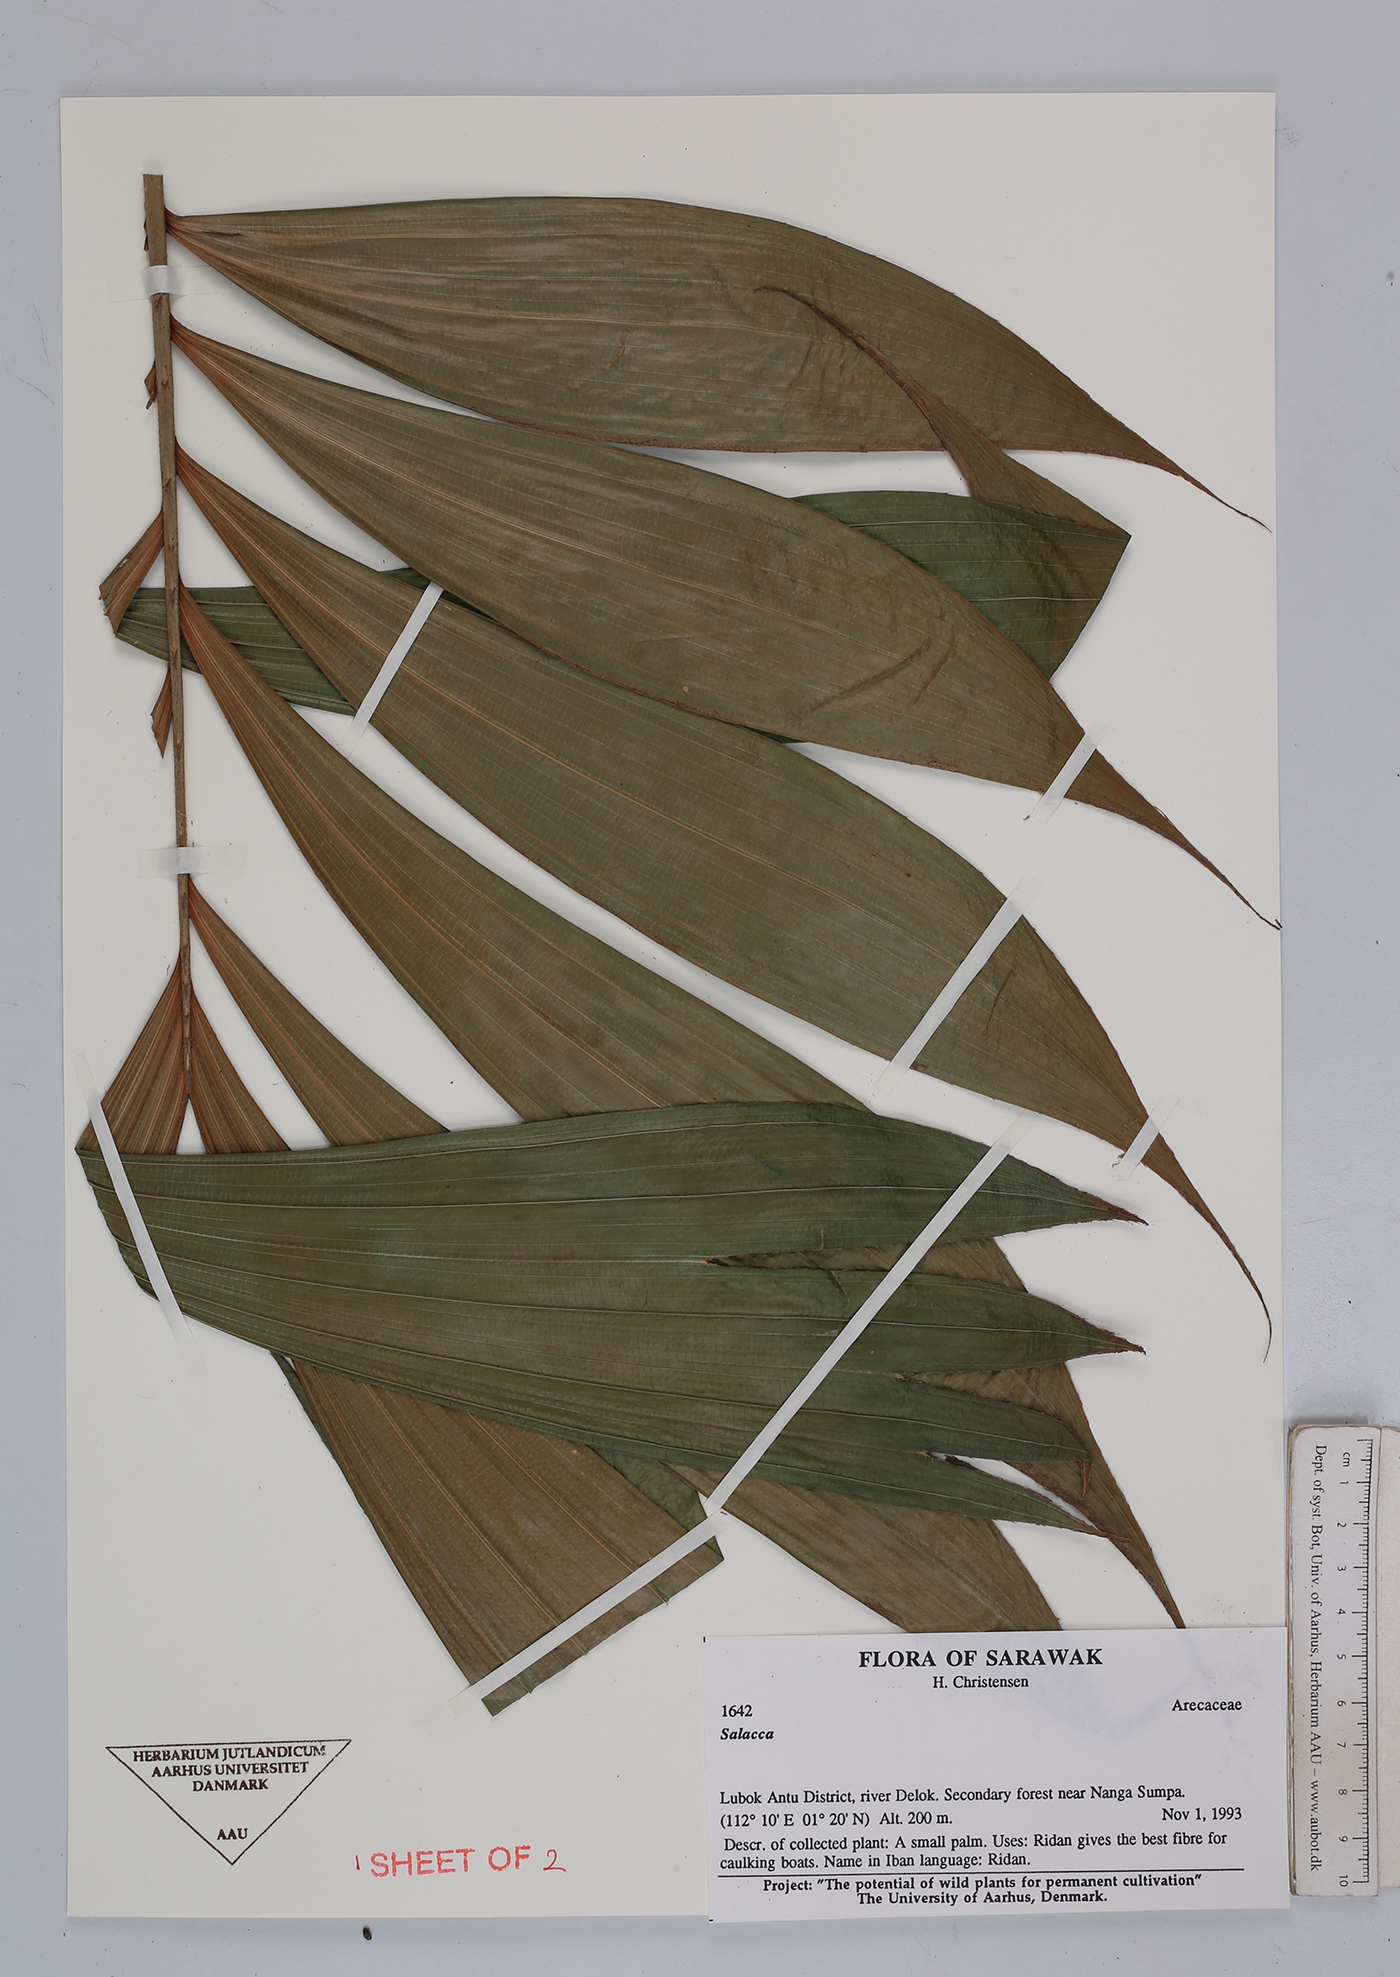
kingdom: Plantae
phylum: Tracheophyta
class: Liliopsida
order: Arecales
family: Arecaceae
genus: Salacca
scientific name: Salacca
